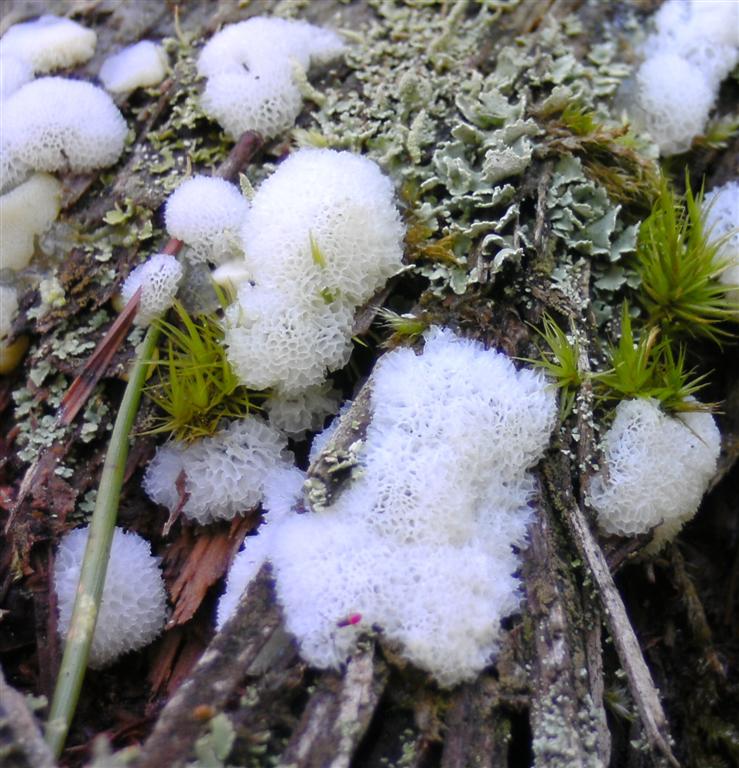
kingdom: Protozoa
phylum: Mycetozoa
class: Protosteliomycetes
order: Ceratiomyxales
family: Ceratiomyxaceae
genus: Ceratiomyxa
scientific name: Ceratiomyxa fruticulosa
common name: Honeycomb coral slime mold
